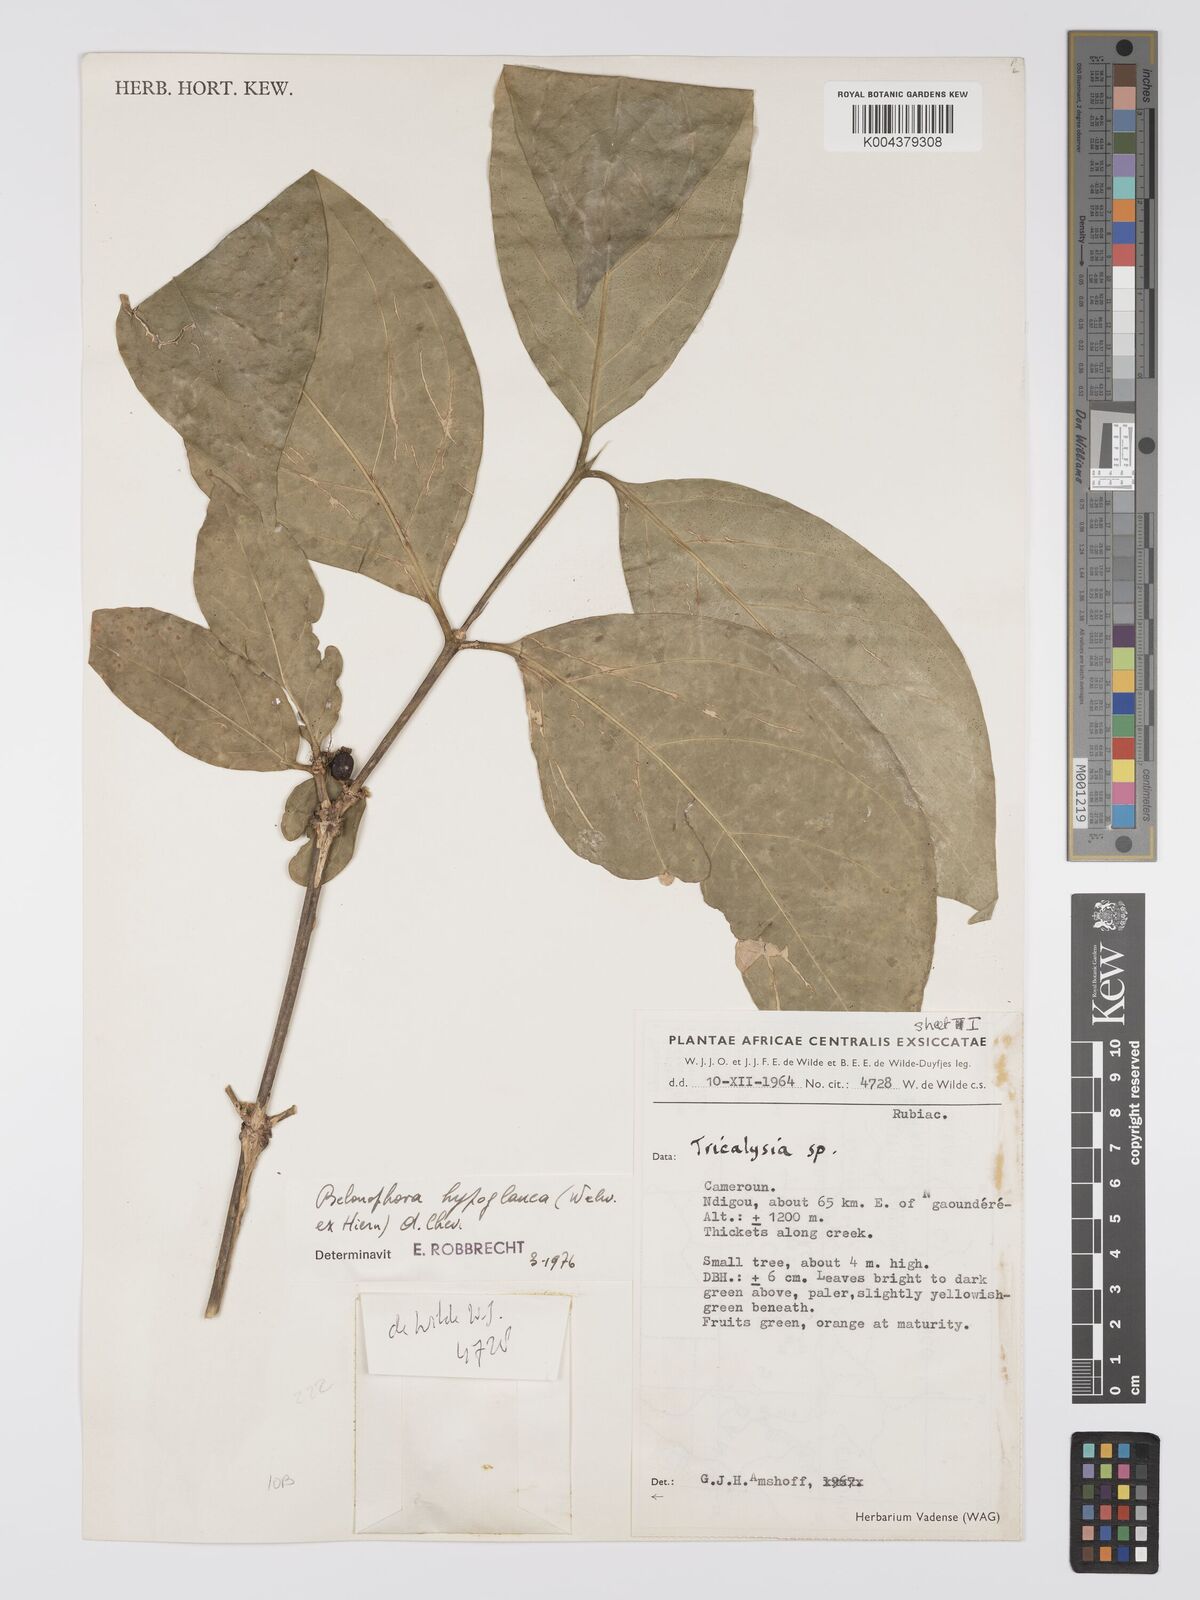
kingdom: Plantae
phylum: Tracheophyta
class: Magnoliopsida
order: Gentianales
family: Rubiaceae
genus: Belonophora
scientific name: Belonophora coffeoides
